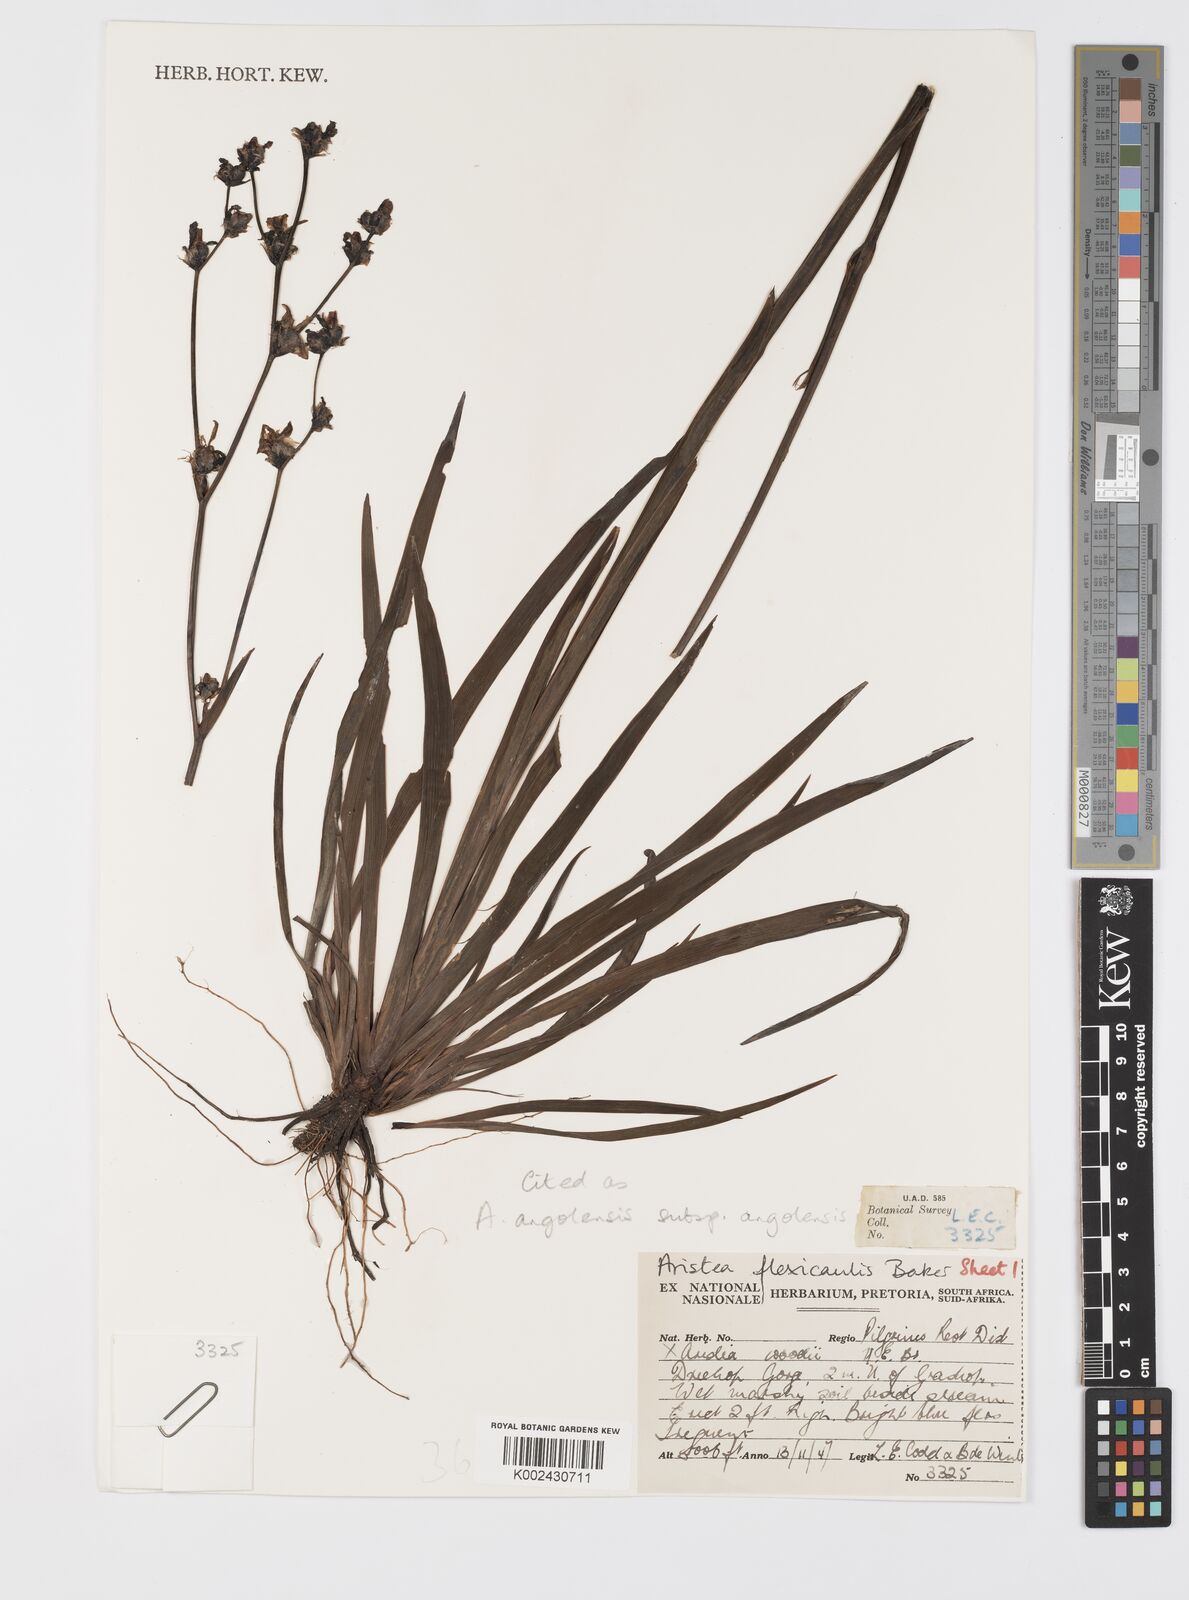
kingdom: Plantae
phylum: Tracheophyta
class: Liliopsida
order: Asparagales
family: Iridaceae
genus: Aristea
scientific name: Aristea angolensis
